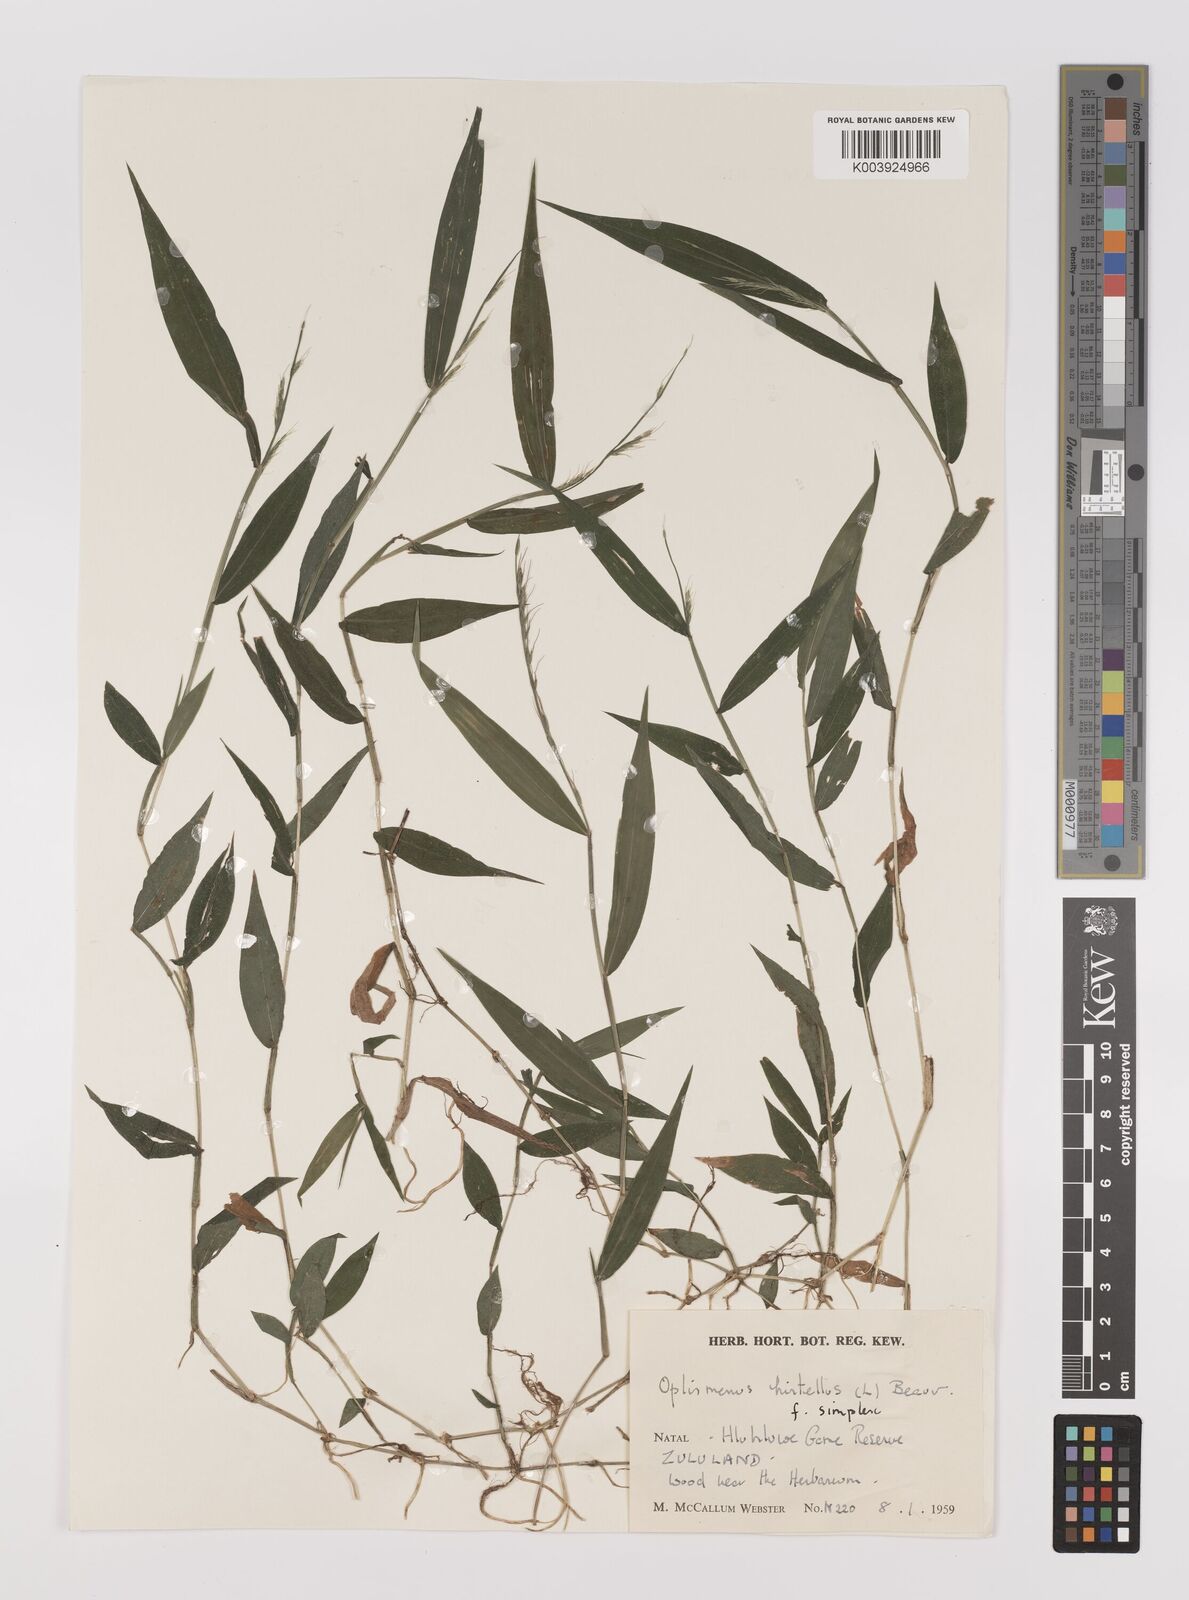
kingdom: Plantae
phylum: Tracheophyta
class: Liliopsida
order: Poales
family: Poaceae
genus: Oplismenus
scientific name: Oplismenus hirtellus
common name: Basketgrass
